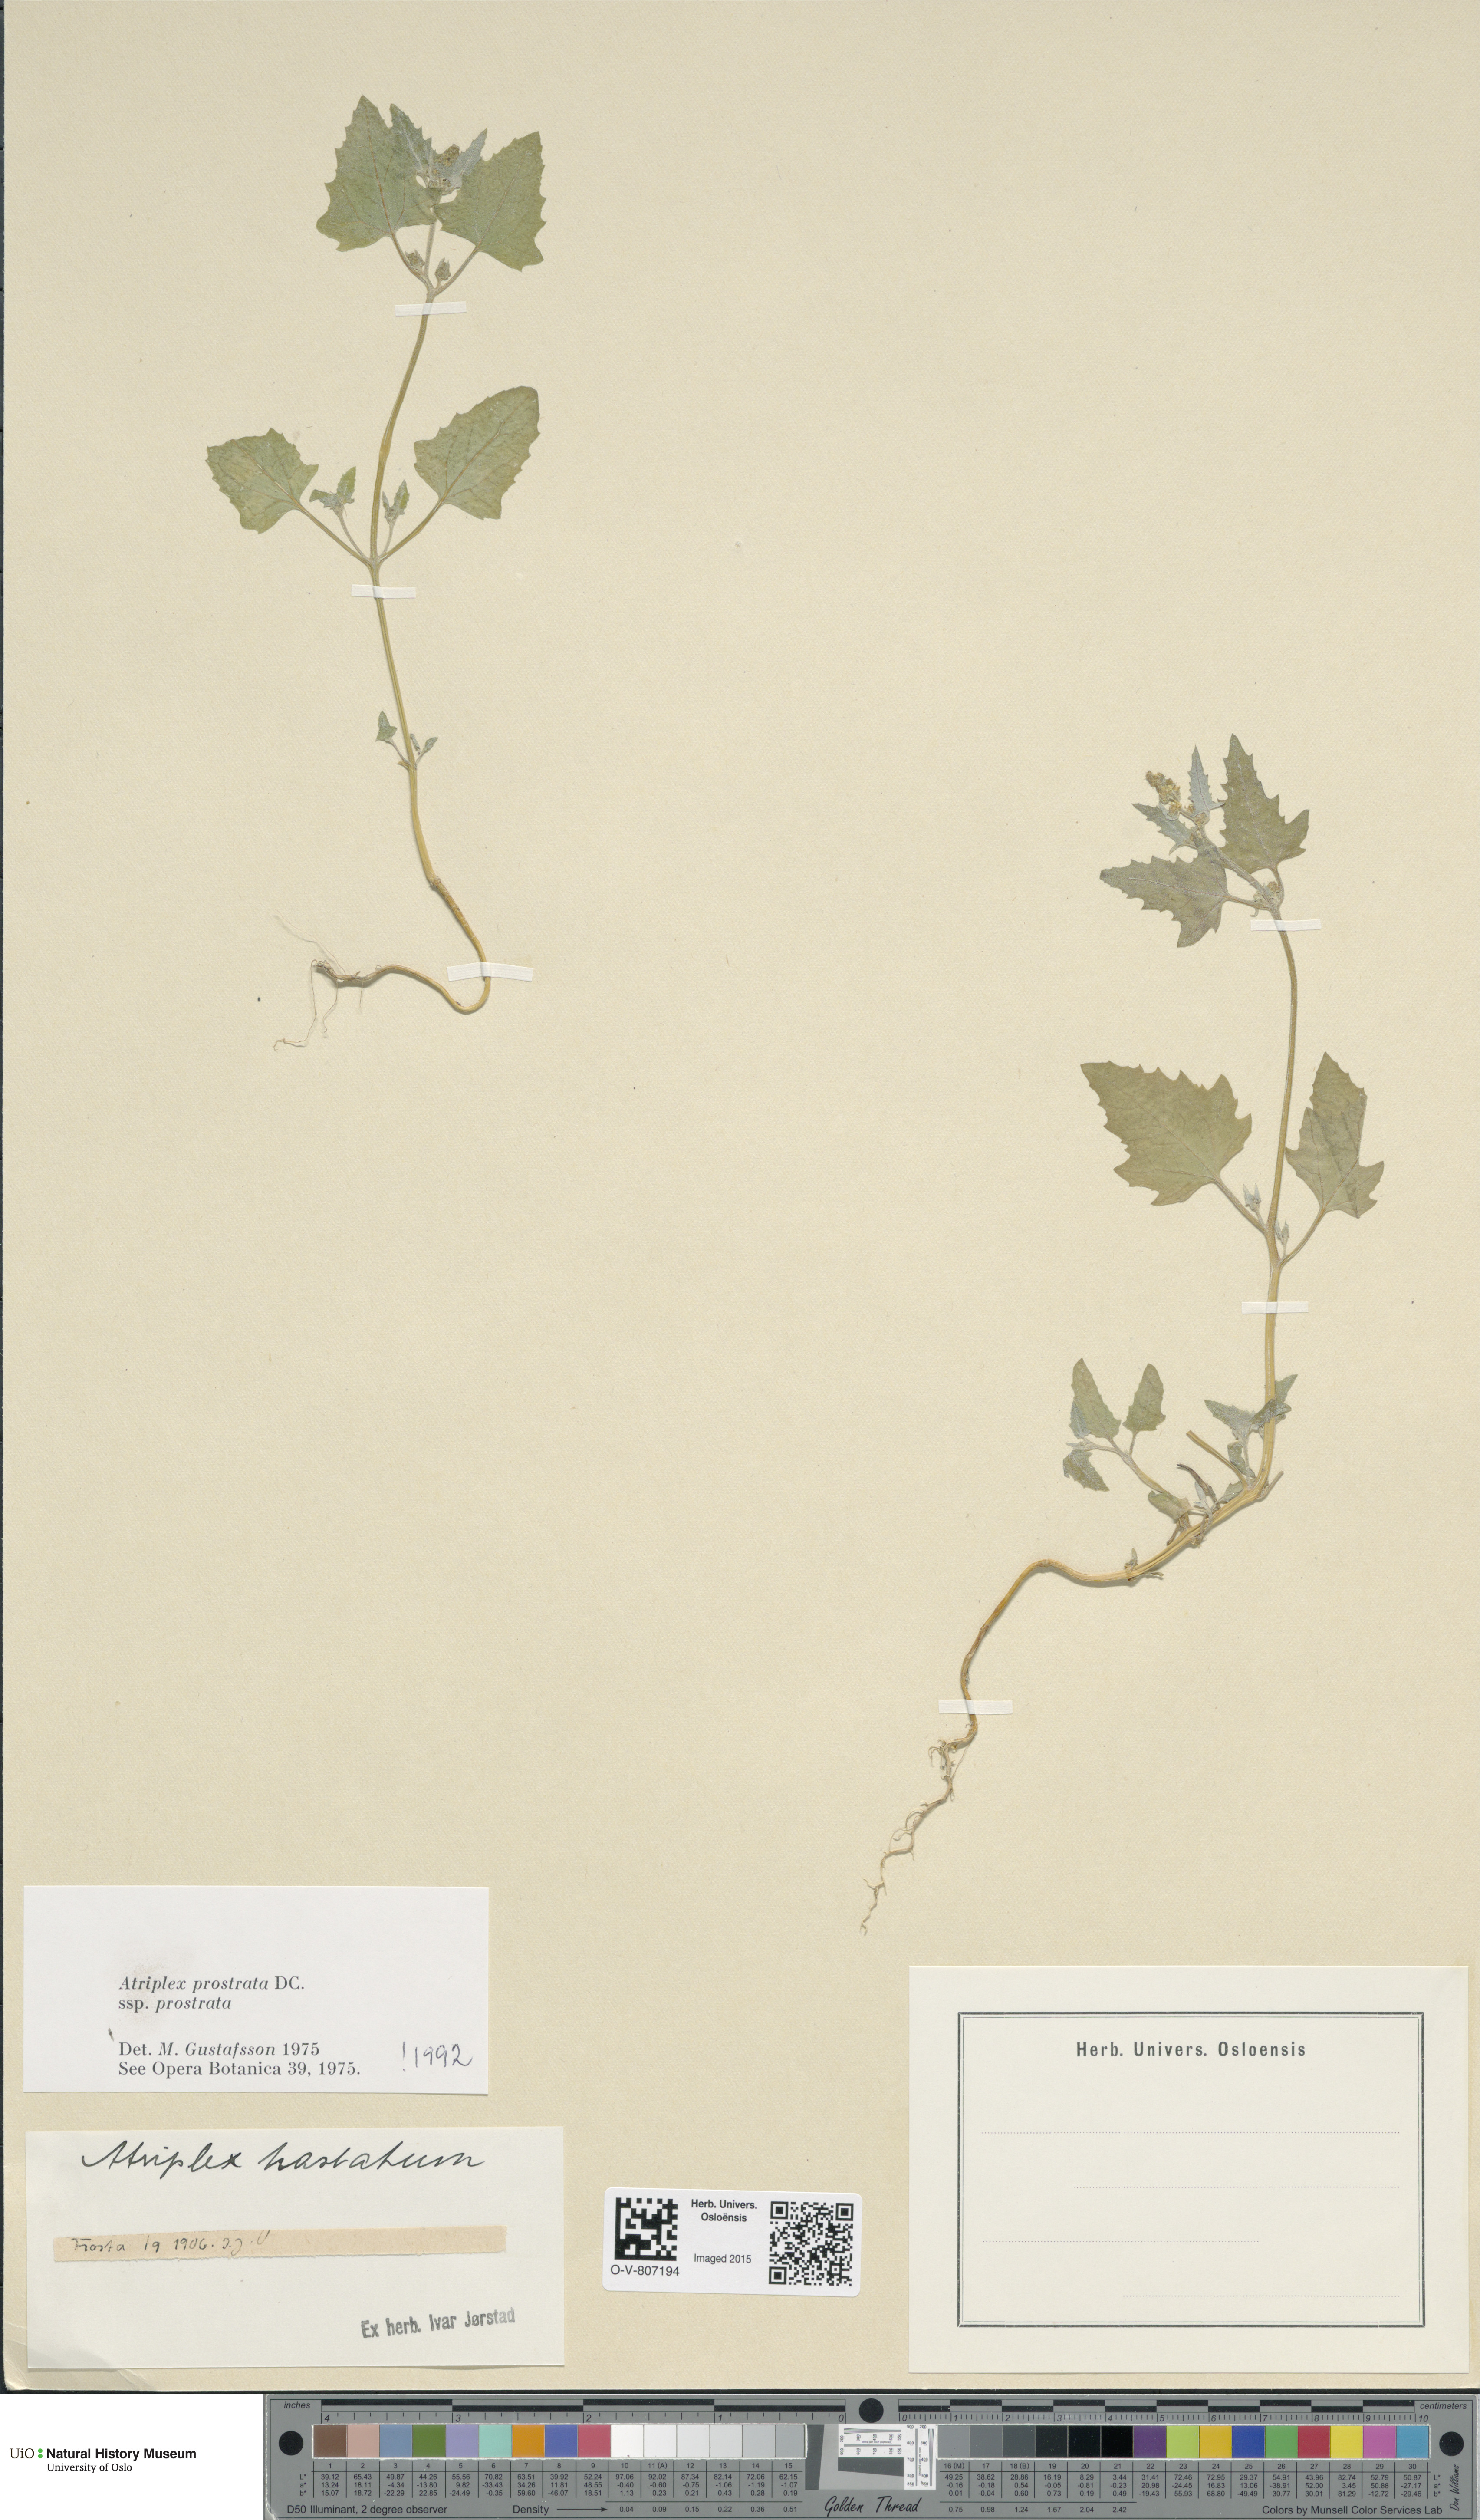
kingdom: Plantae
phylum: Tracheophyta
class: Magnoliopsida
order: Caryophyllales
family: Amaranthaceae
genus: Atriplex
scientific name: Atriplex prostrata
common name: Spear-leaved orache
